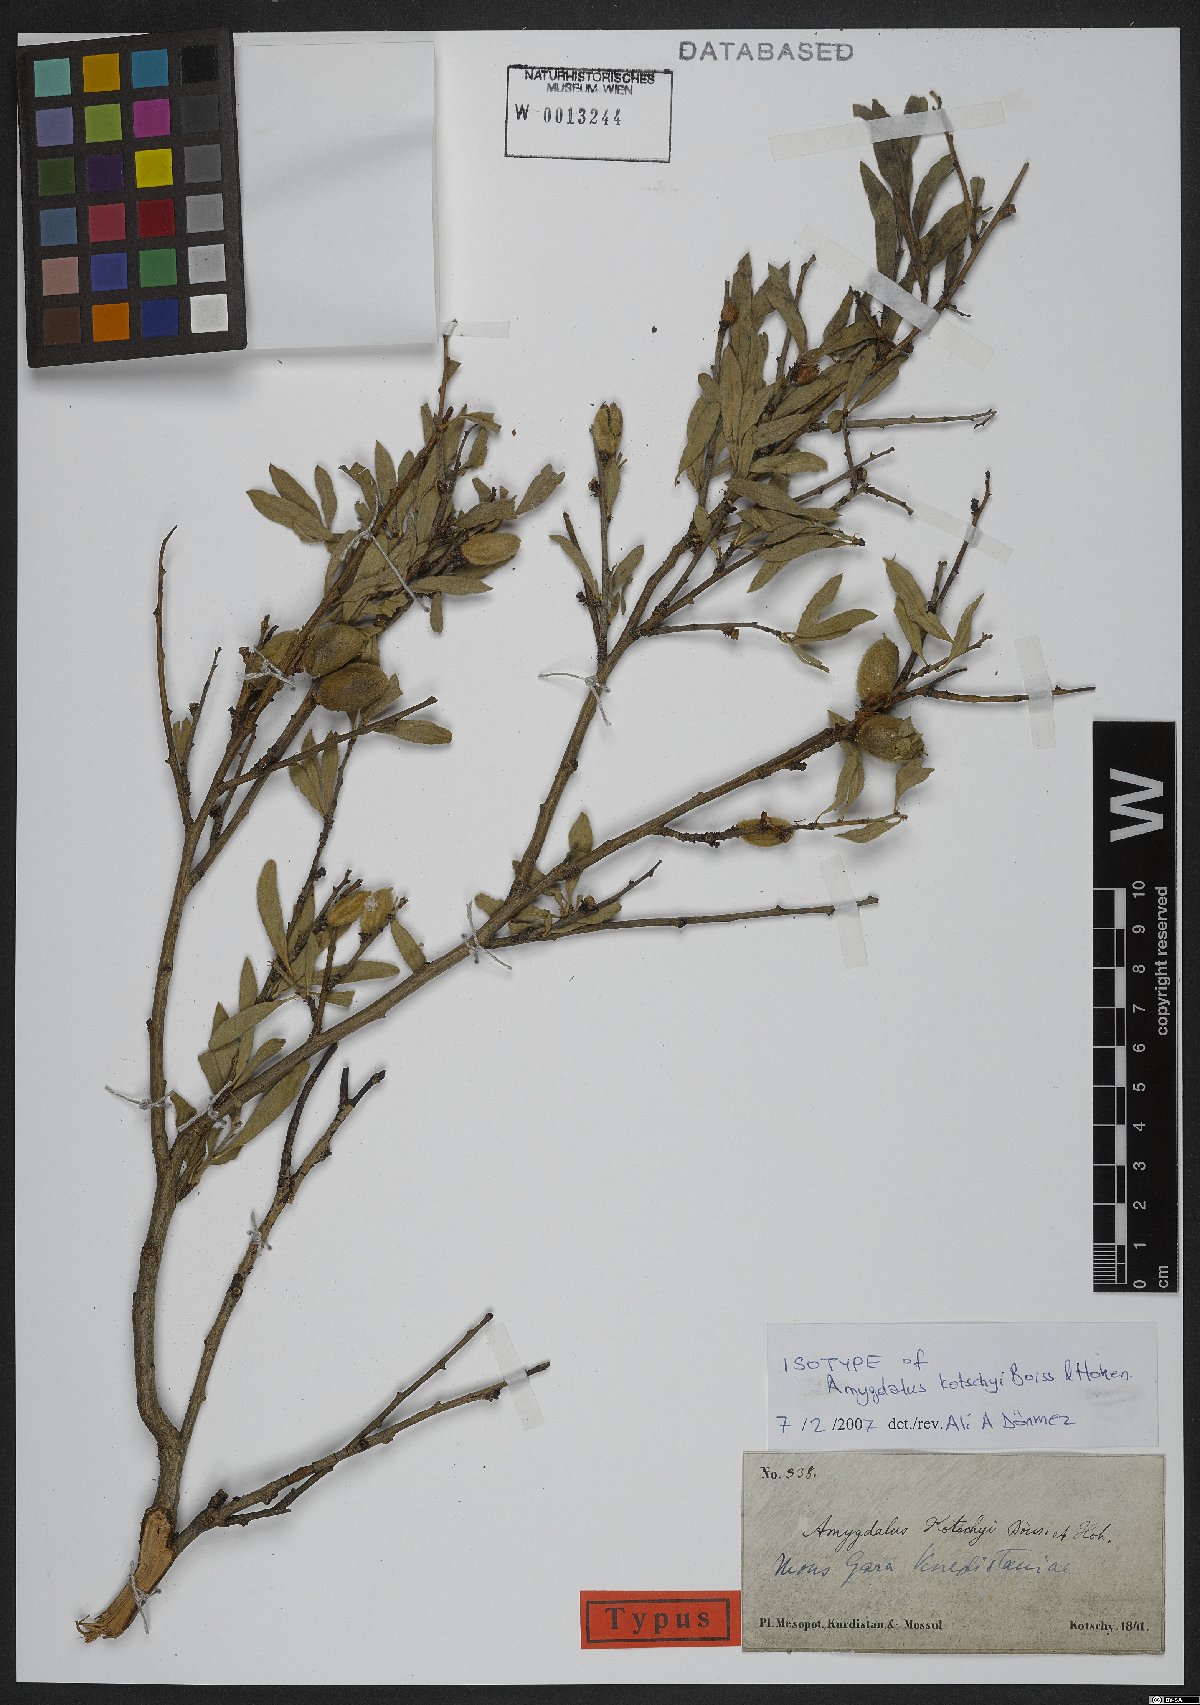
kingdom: Plantae
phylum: Tracheophyta
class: Magnoliopsida
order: Rosales
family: Rosaceae
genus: Prunus
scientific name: Prunus kotschyi
